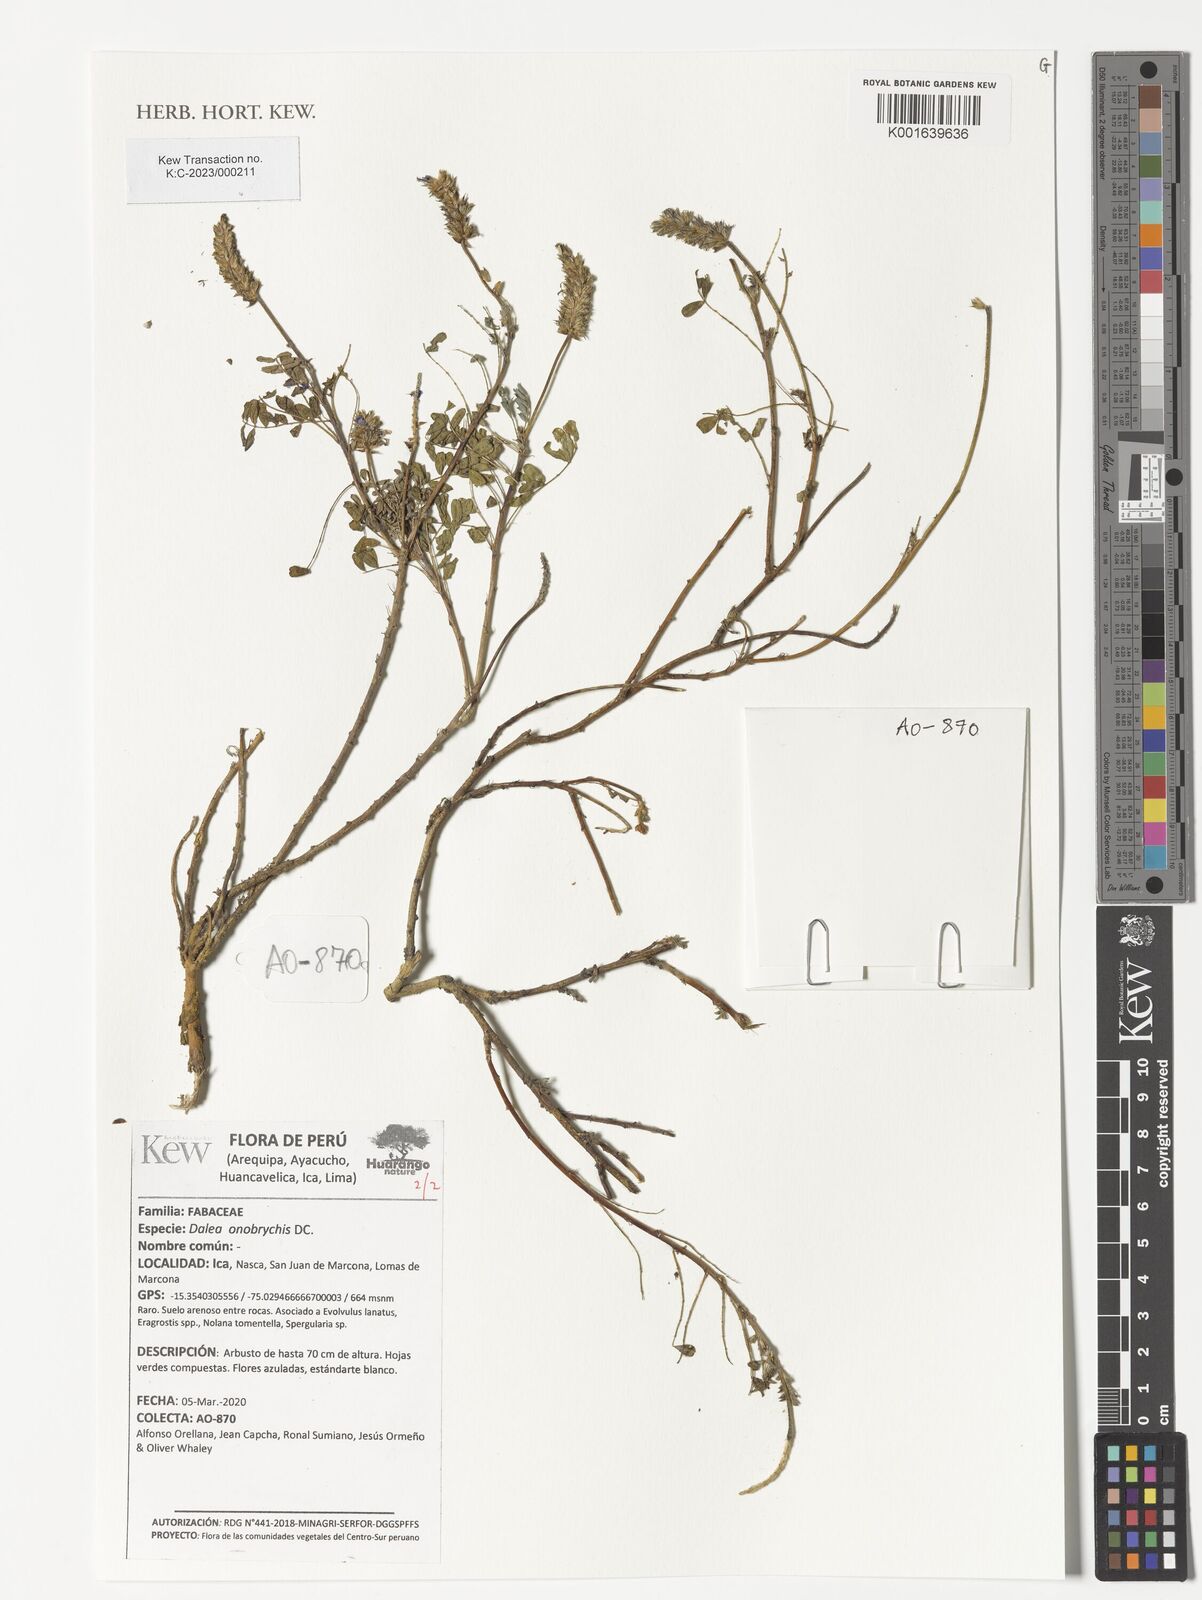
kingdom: Plantae
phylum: Tracheophyta
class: Magnoliopsida
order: Fabales
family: Fabaceae
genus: Dalea
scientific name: Dalea onobrychis
